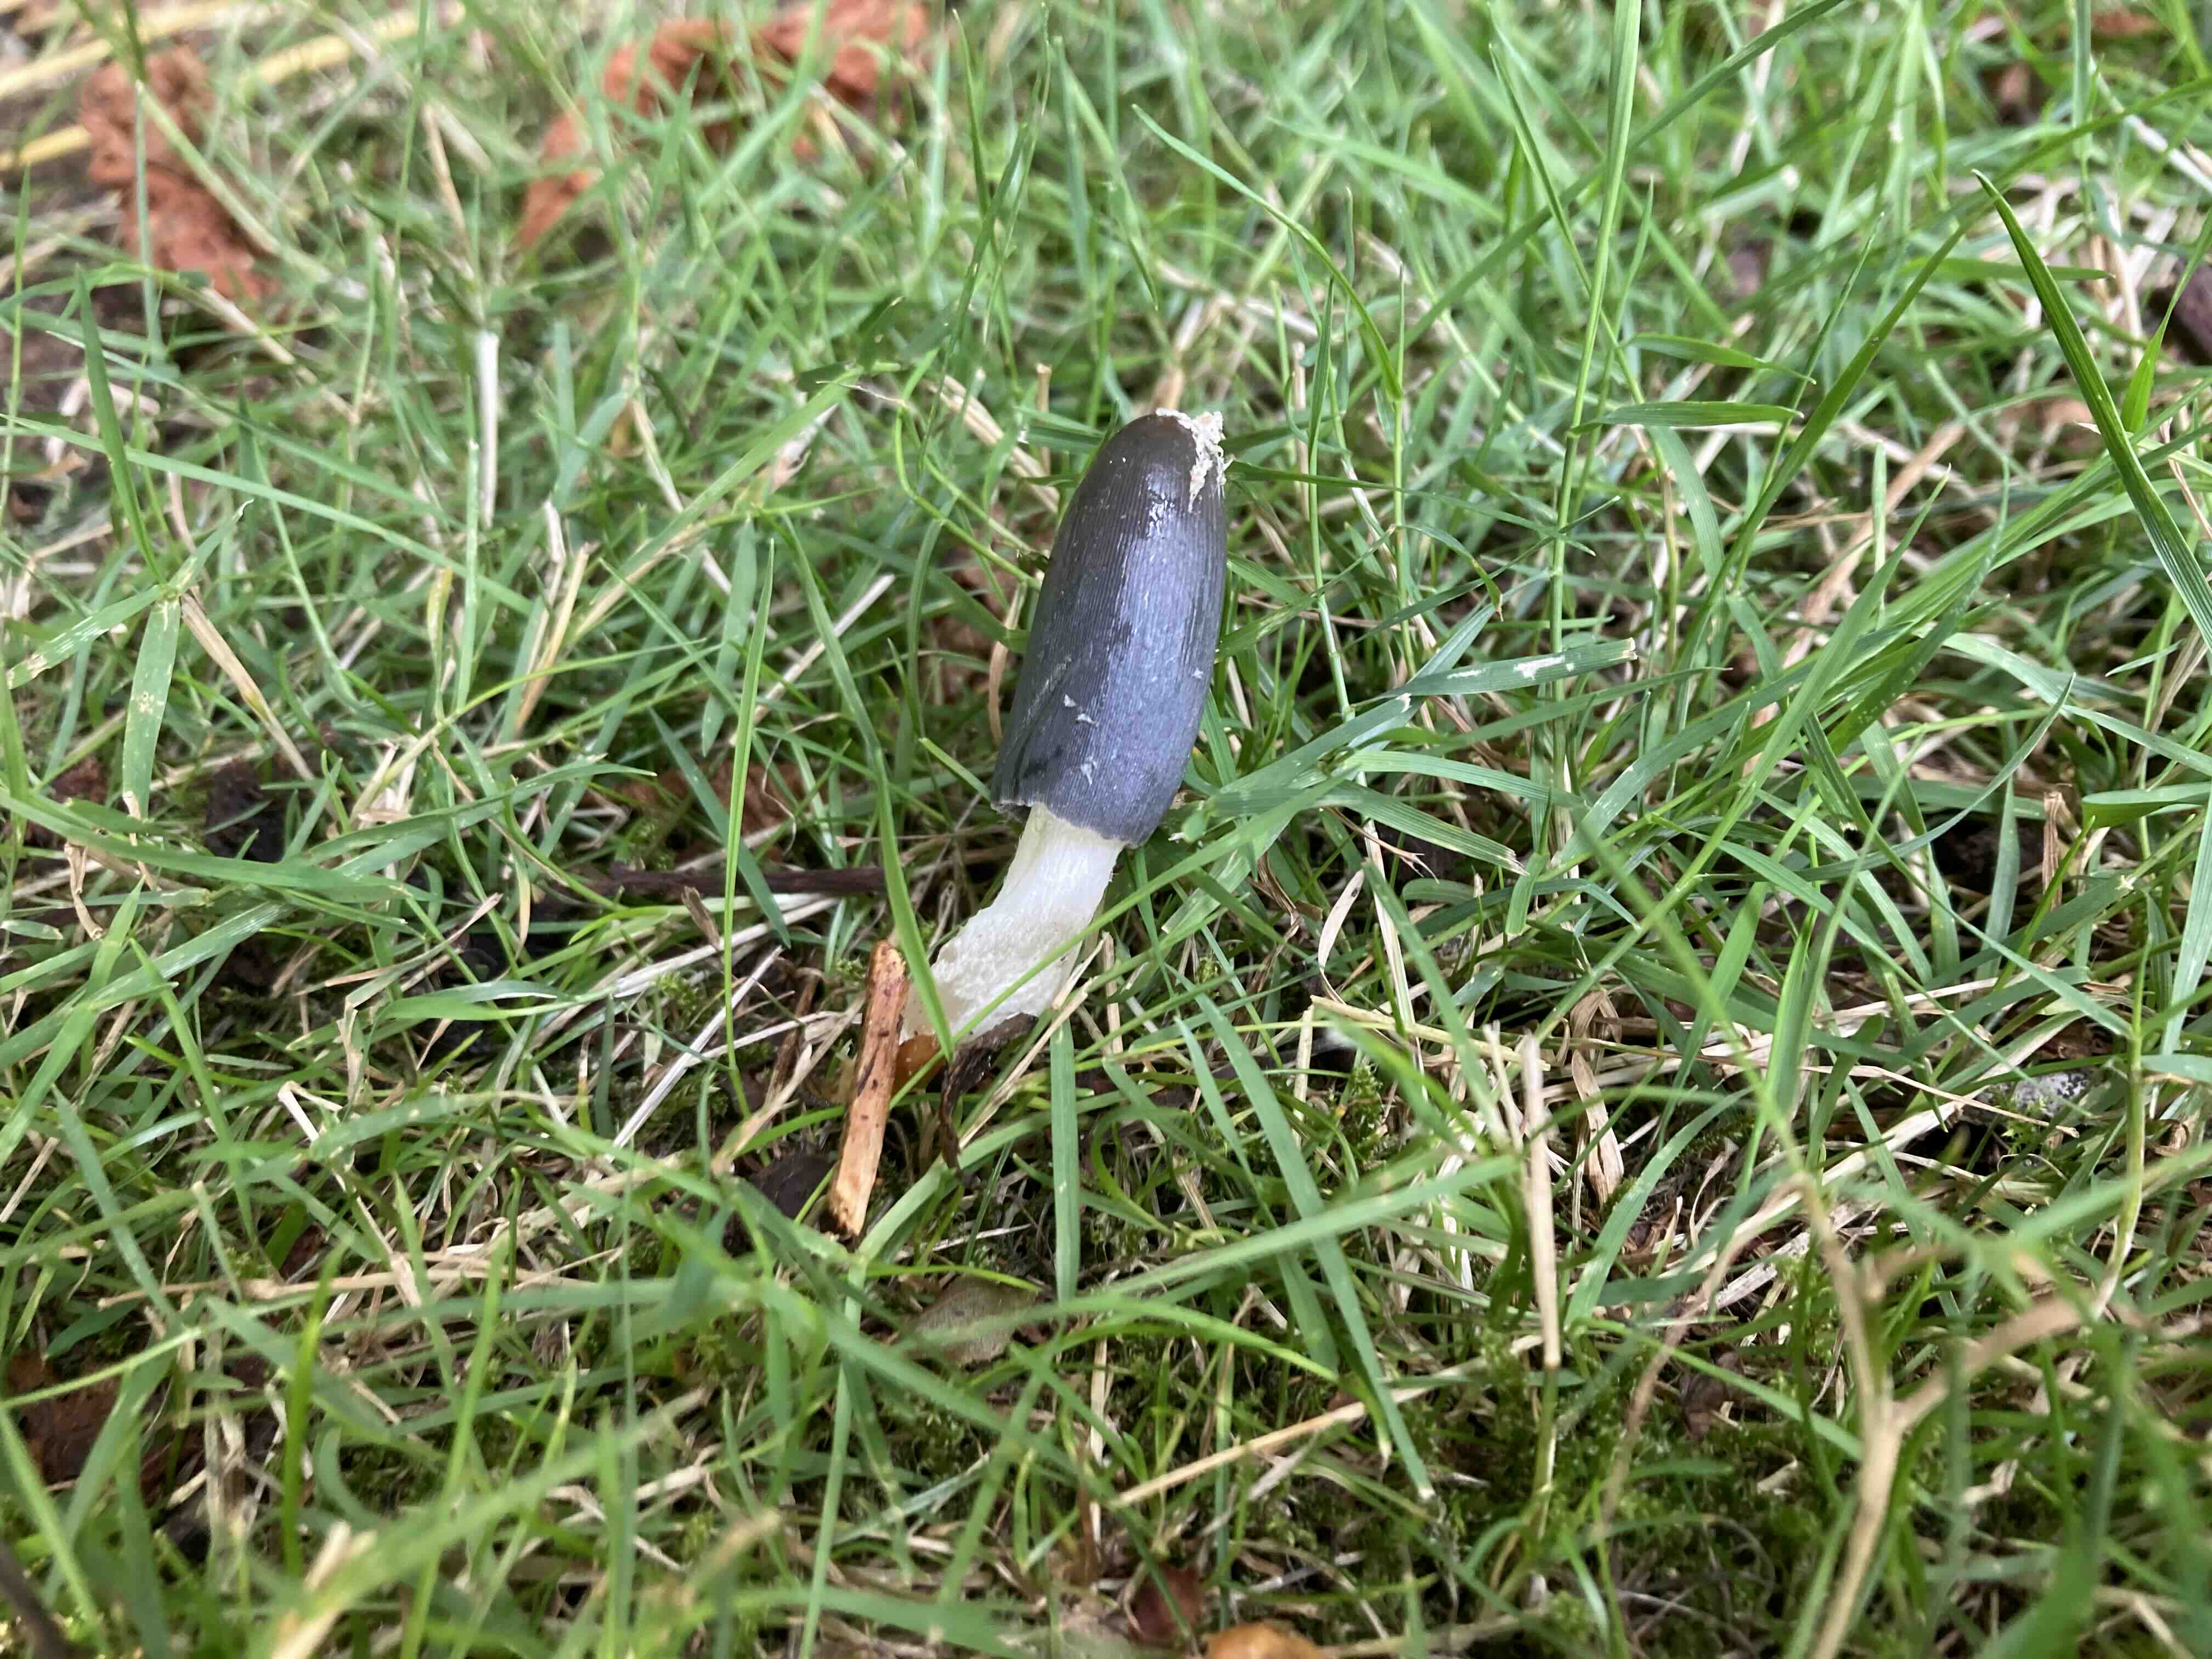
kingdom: Fungi
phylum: Basidiomycota
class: Agaricomycetes
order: Agaricales
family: Psathyrellaceae
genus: Coprinopsis
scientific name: Coprinopsis
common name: blækhat
